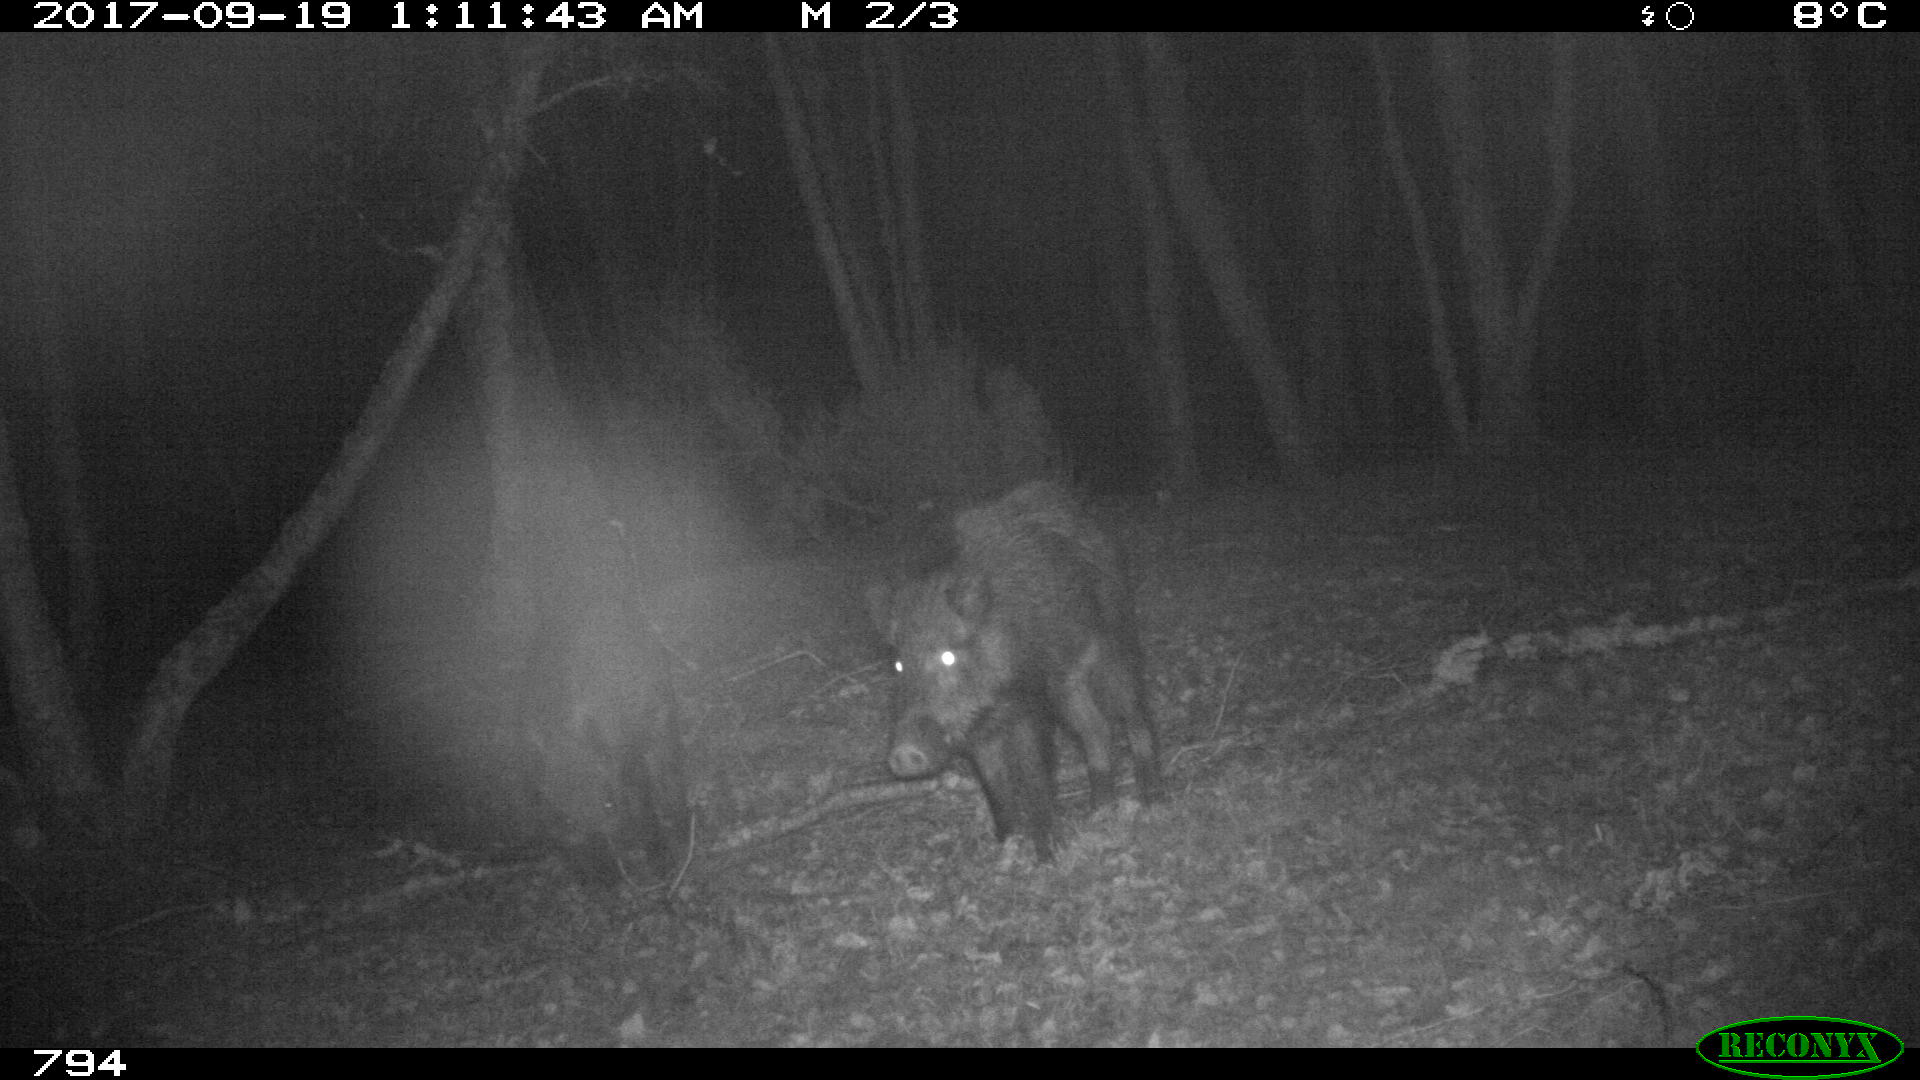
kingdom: Animalia
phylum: Chordata
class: Mammalia
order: Artiodactyla
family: Suidae
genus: Sus
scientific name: Sus scrofa
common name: Wild boar
